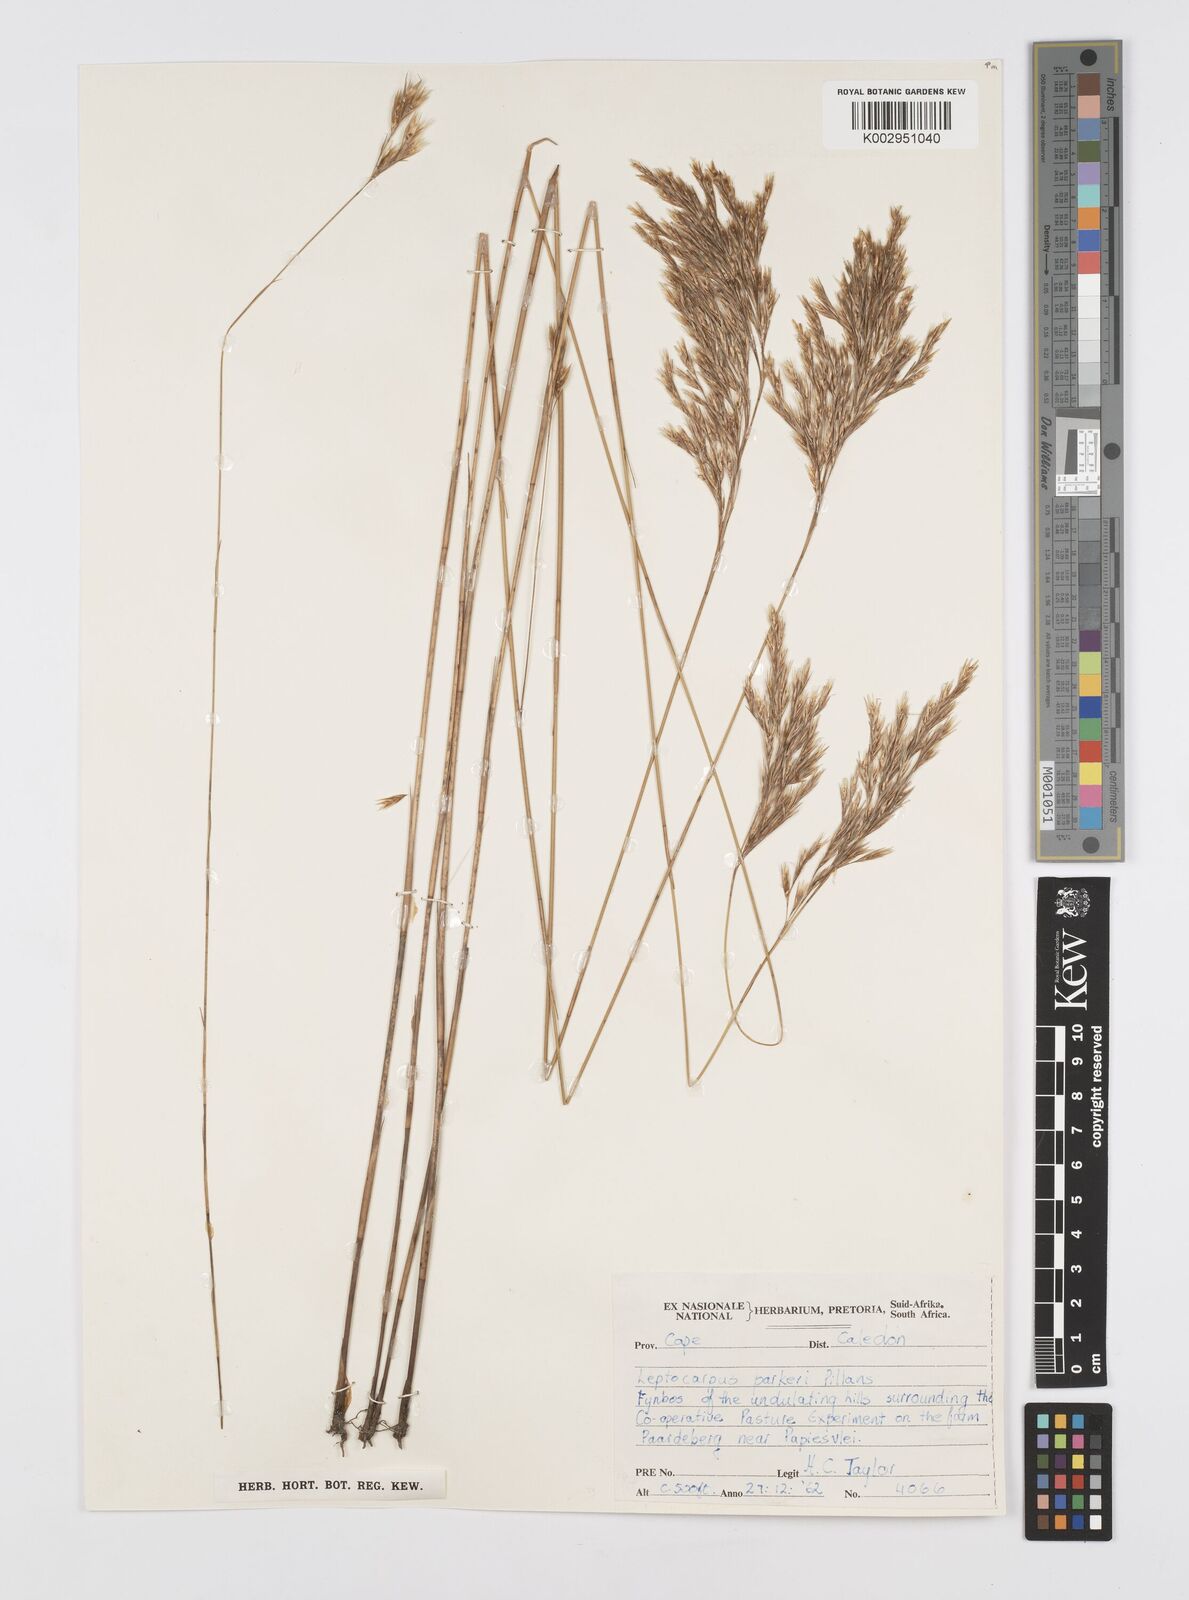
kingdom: Plantae
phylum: Tracheophyta
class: Liliopsida
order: Poales
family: Restionaceae
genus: Restio
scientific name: Restio festuciformis
